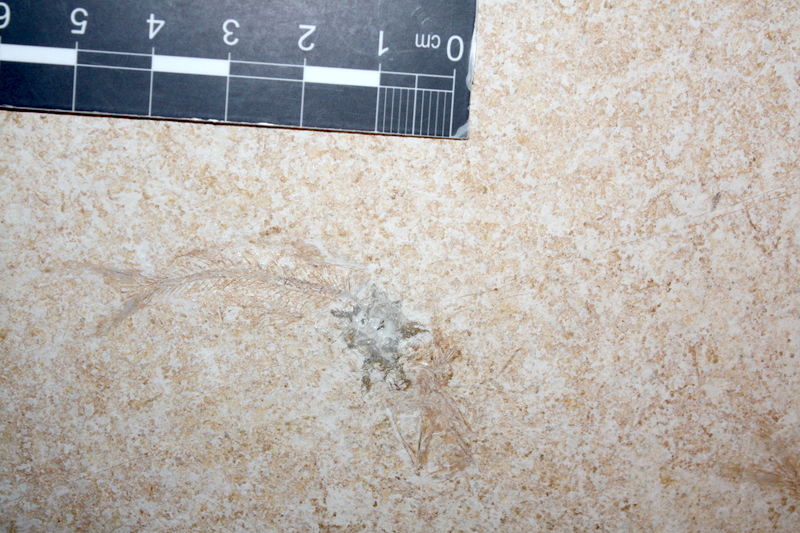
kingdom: Animalia
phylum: Chordata
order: Salmoniformes
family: Orthogonikleithridae
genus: Leptolepides
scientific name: Leptolepides sprattiformis
